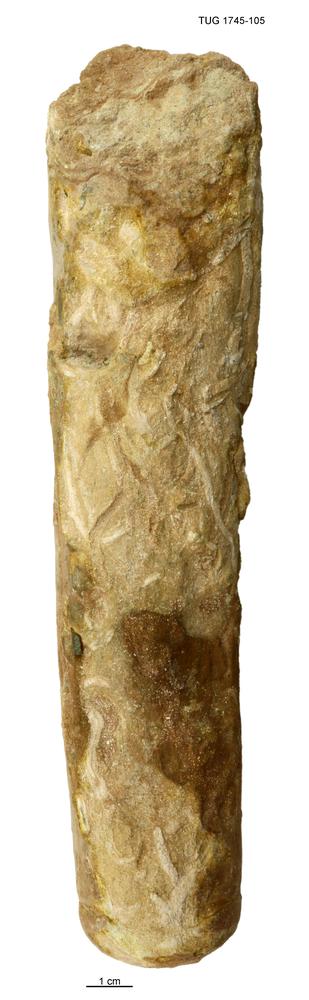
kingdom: Animalia
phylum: Mollusca
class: Cephalopoda
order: Orthocerida
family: Orthoceratidae
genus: Orthoceras
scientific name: Orthoceras
